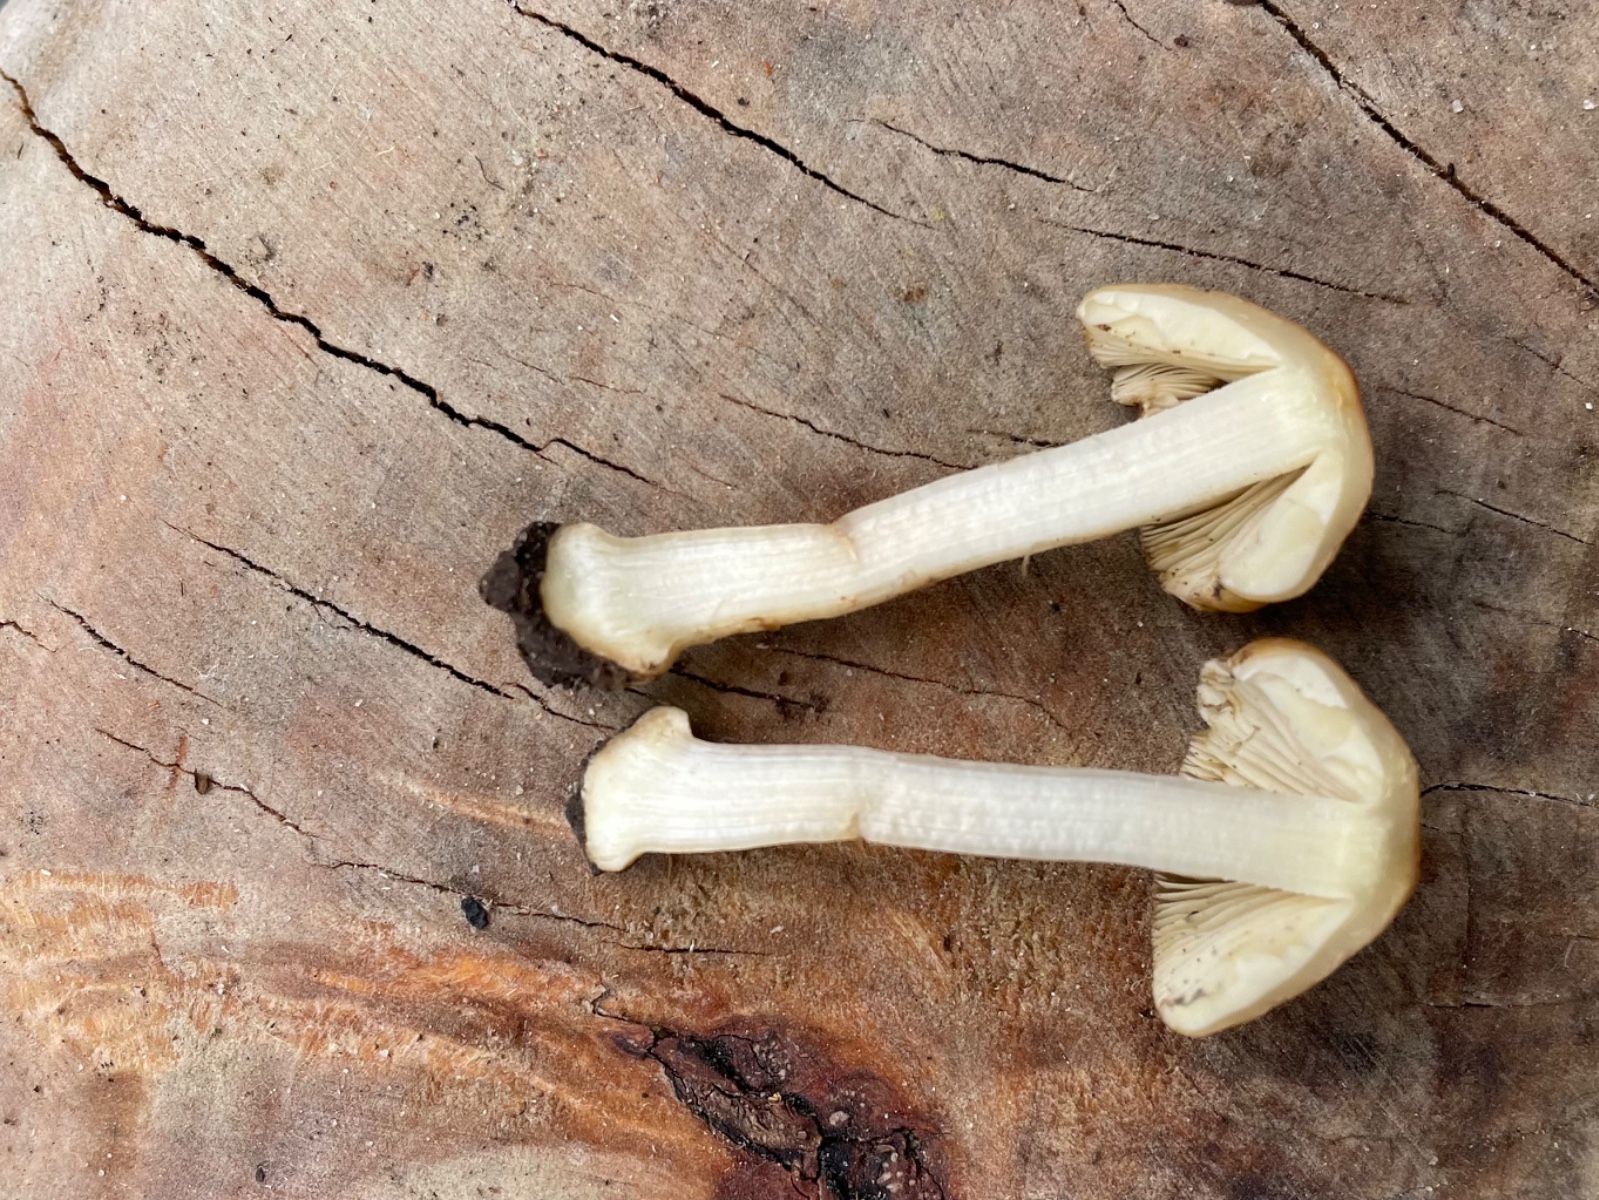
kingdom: Fungi
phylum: Basidiomycota
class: Agaricomycetes
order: Agaricales
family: Inocybaceae
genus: Inocybe
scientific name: Inocybe
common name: trævlhat
